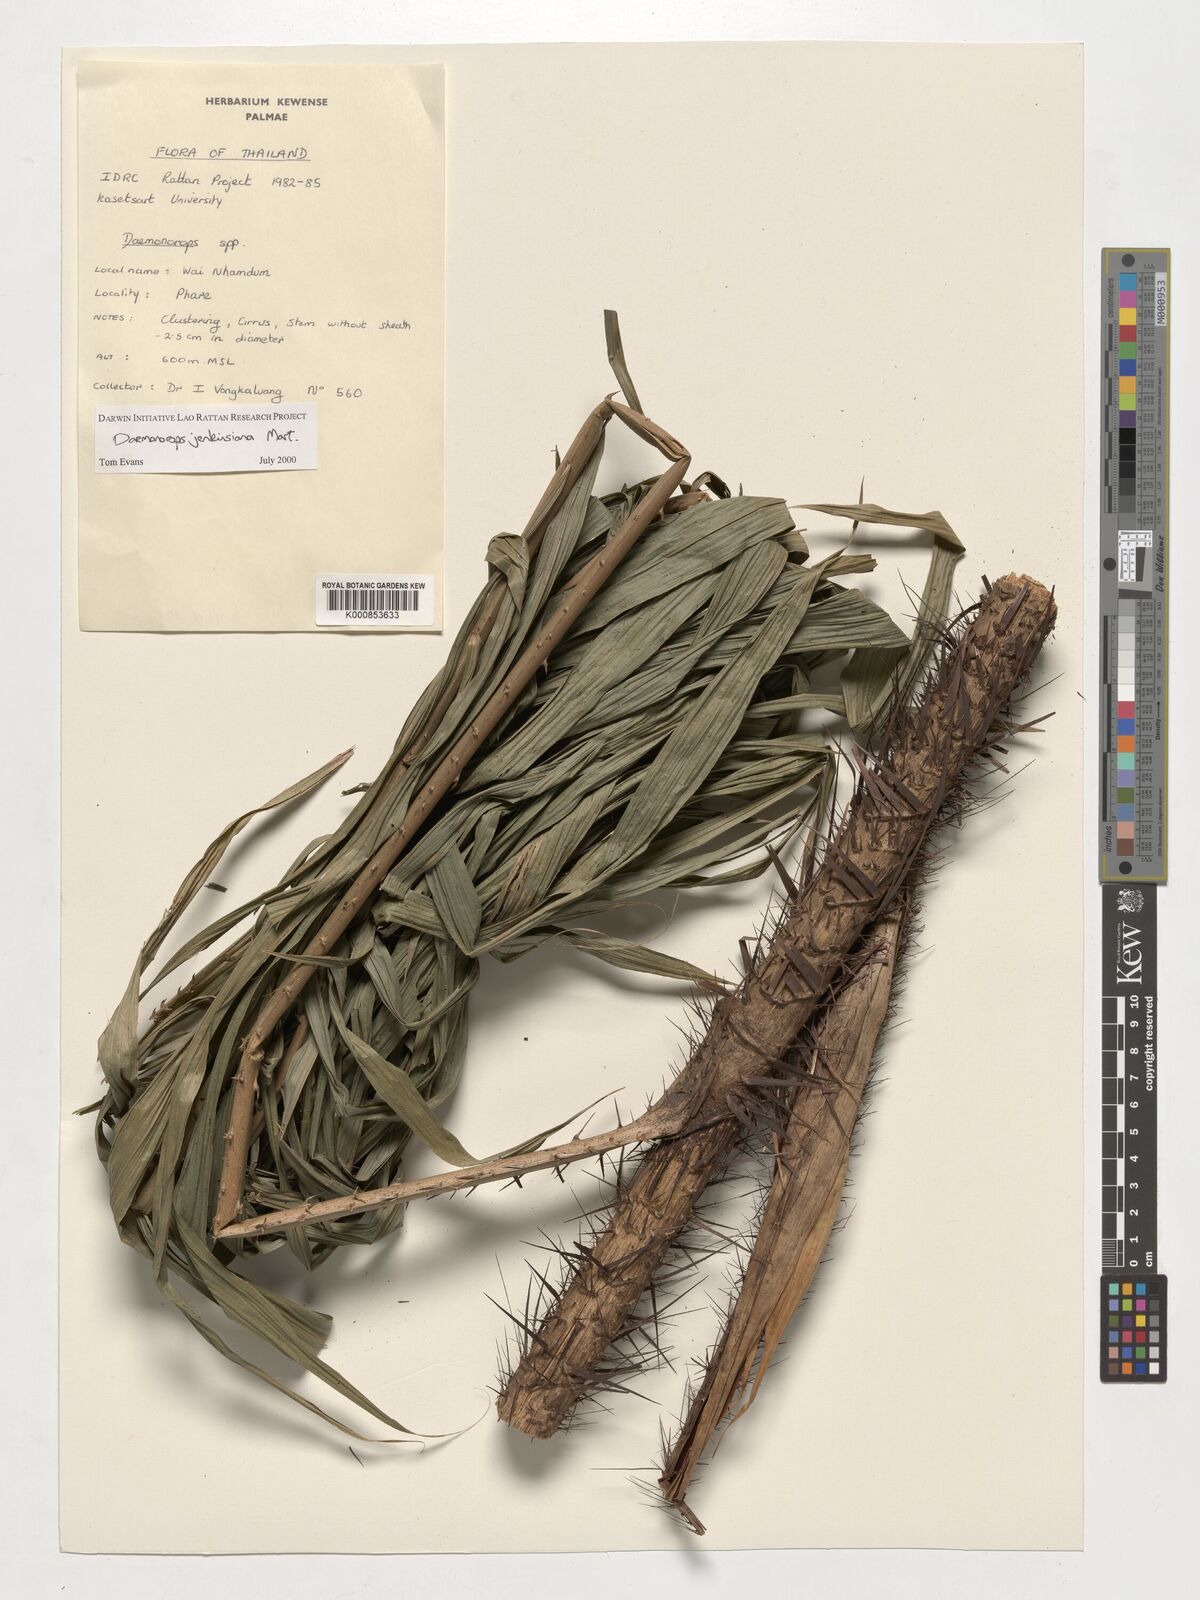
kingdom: Plantae
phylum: Tracheophyta
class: Liliopsida
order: Arecales
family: Arecaceae
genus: Calamus
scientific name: Calamus melanochaetes
